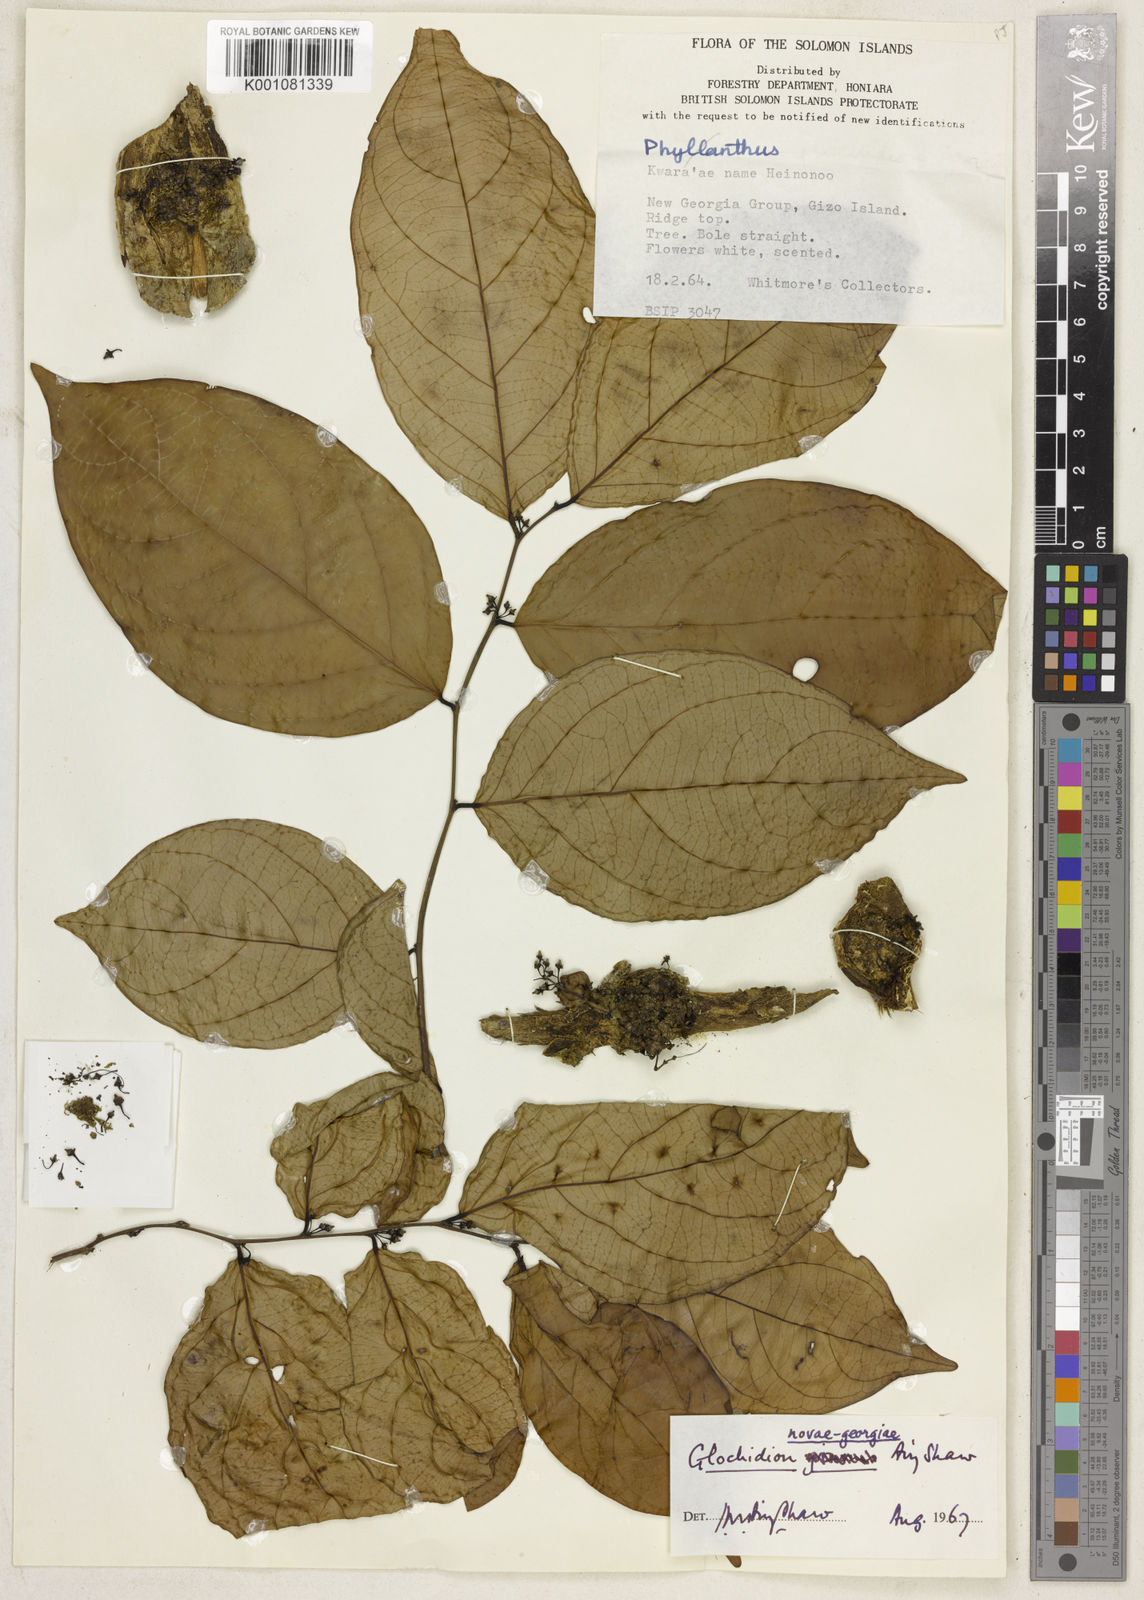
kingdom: Plantae
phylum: Tracheophyta
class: Magnoliopsida
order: Malpighiales
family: Phyllanthaceae
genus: Glochidion
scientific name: Glochidion novae-georgiae
